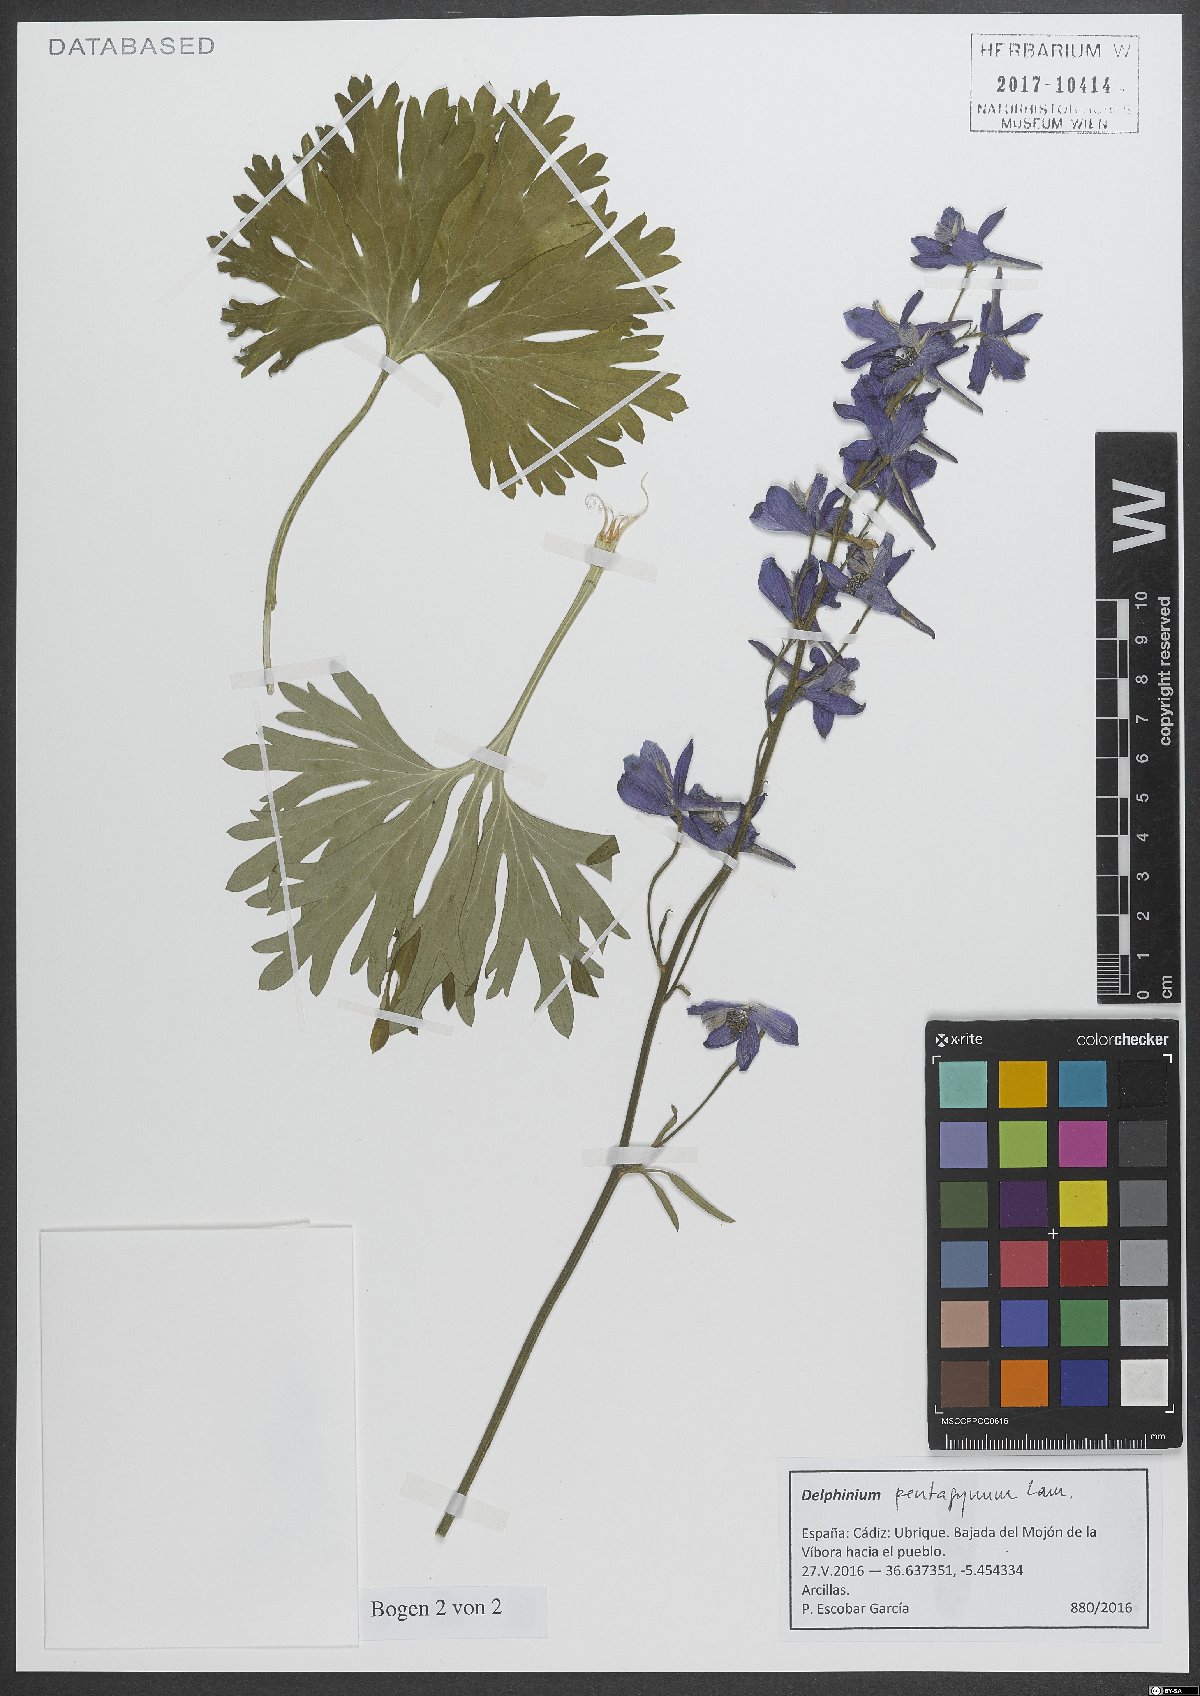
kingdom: Plantae
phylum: Tracheophyta
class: Magnoliopsida
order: Ranunculales
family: Ranunculaceae
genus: Delphinium
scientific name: Delphinium pentagynum
